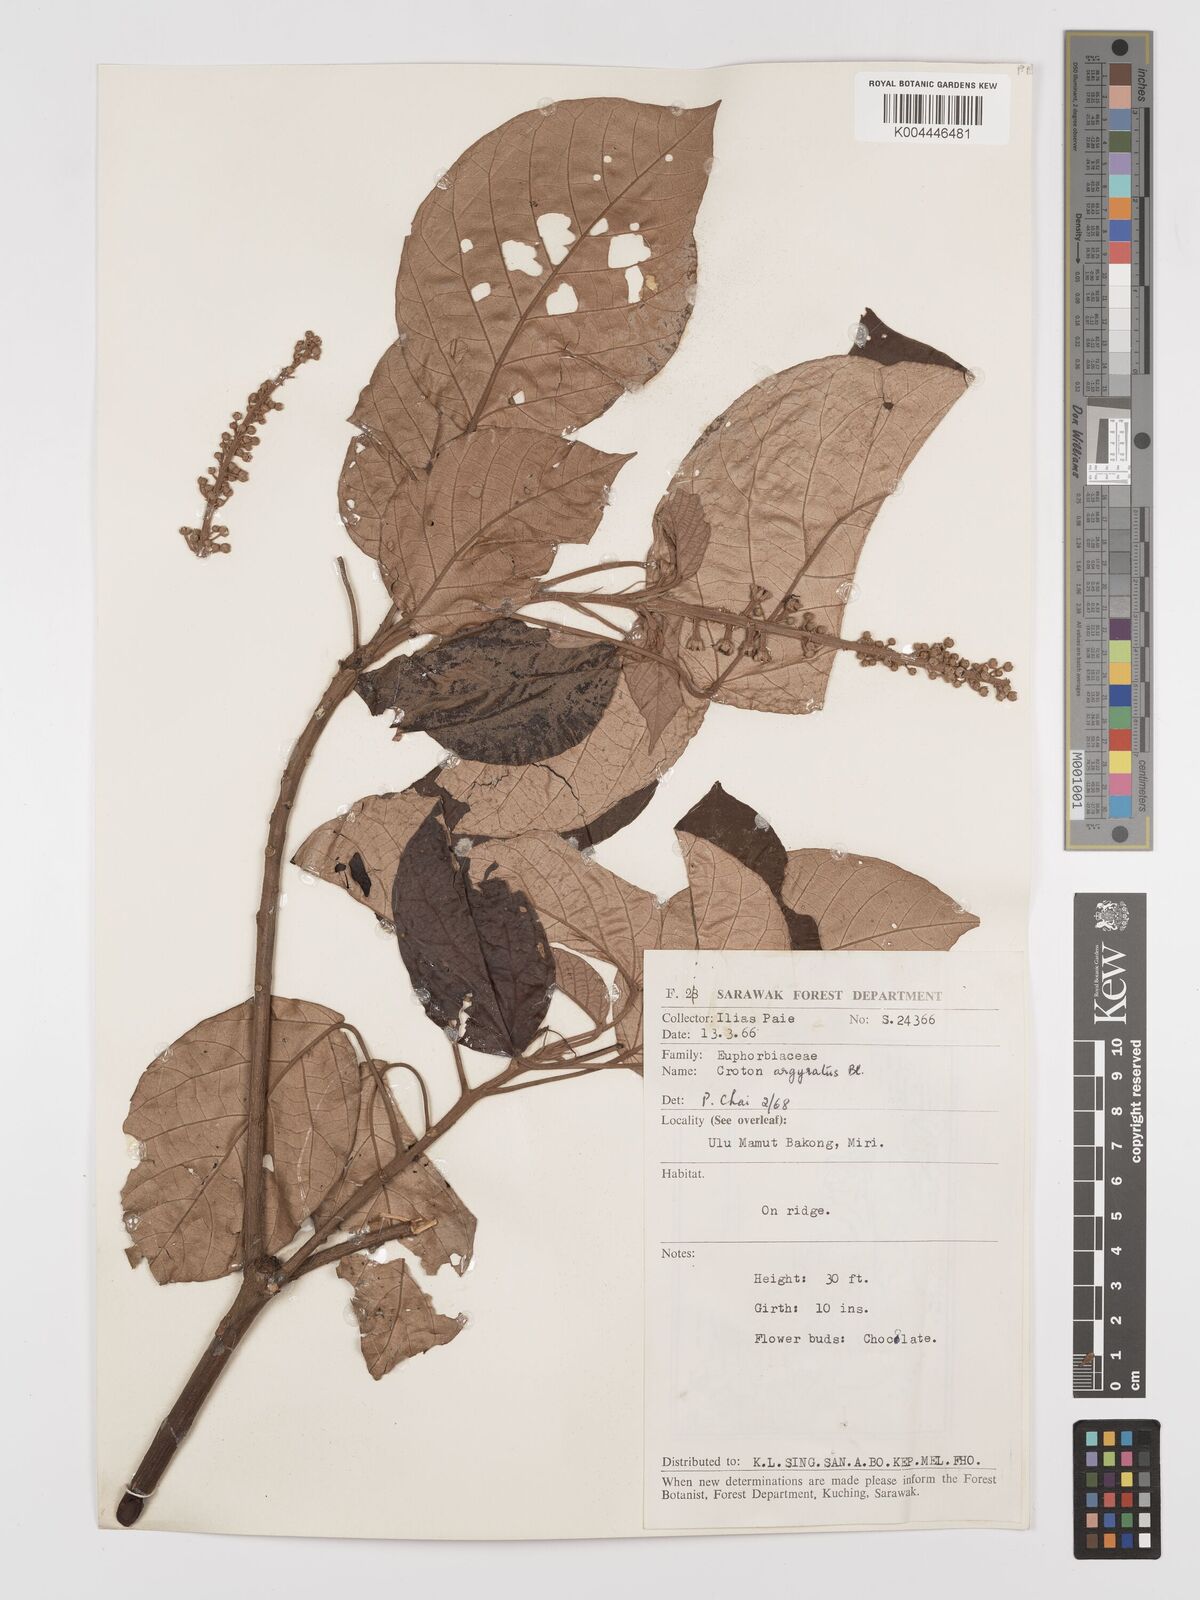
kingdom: Plantae
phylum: Tracheophyta
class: Magnoliopsida
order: Malpighiales
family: Euphorbiaceae
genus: Croton
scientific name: Croton argyratus
